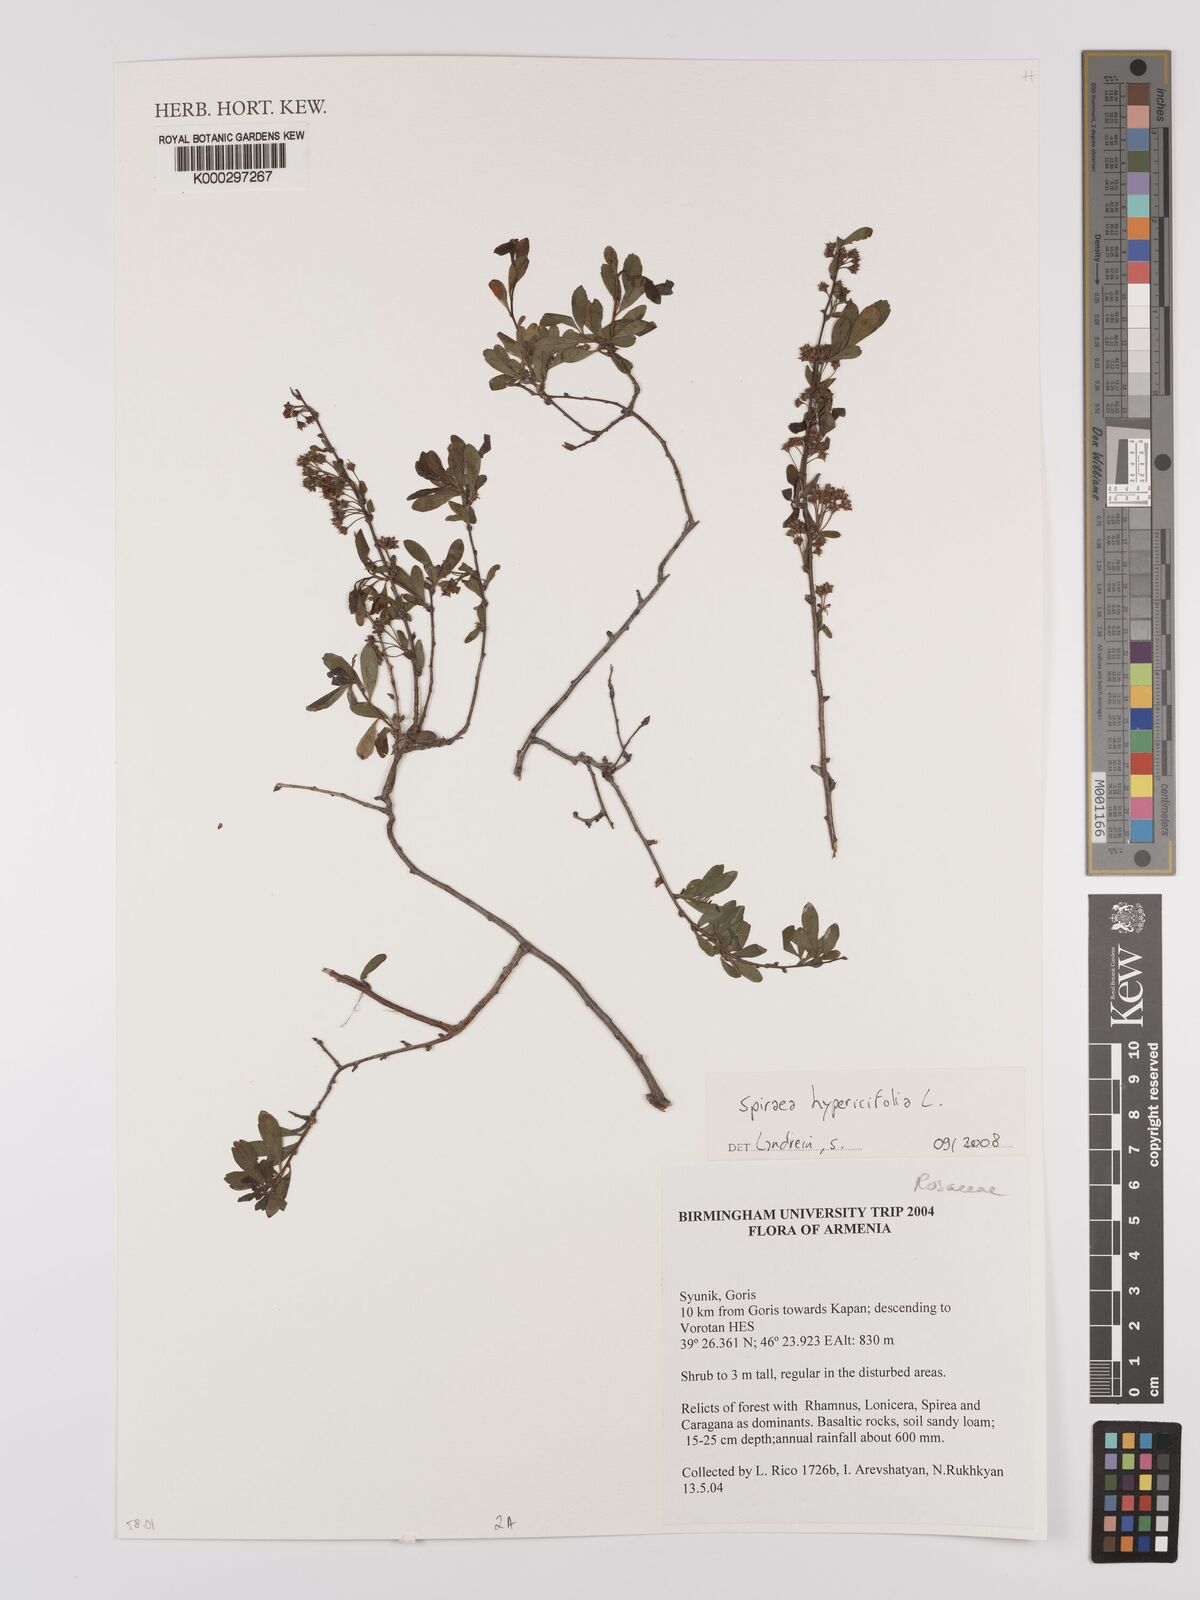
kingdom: Plantae
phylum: Tracheophyta
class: Magnoliopsida
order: Rosales
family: Rosaceae
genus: Spiraea
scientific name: Spiraea hypericifolia
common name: Iberian spirea
